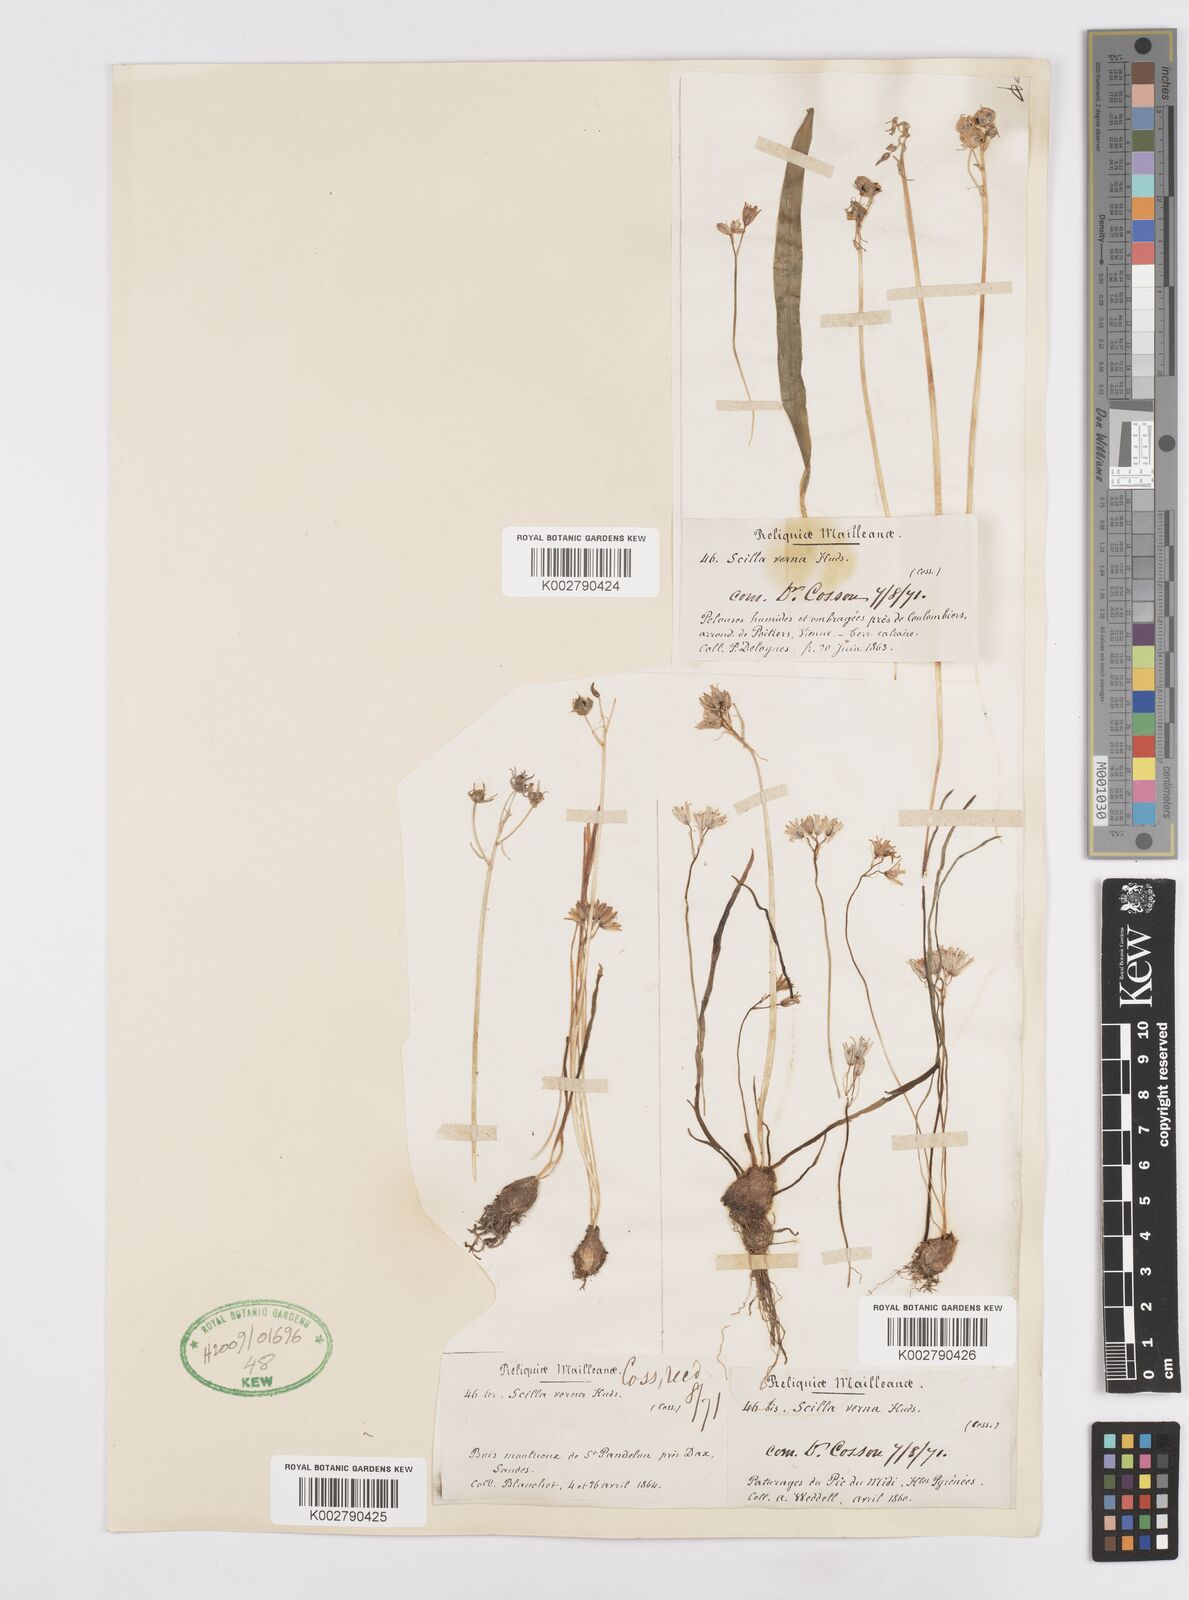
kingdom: Plantae
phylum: Tracheophyta
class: Liliopsida
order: Asparagales
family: Asparagaceae
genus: Scilla
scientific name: Scilla verna
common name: Spring squill
